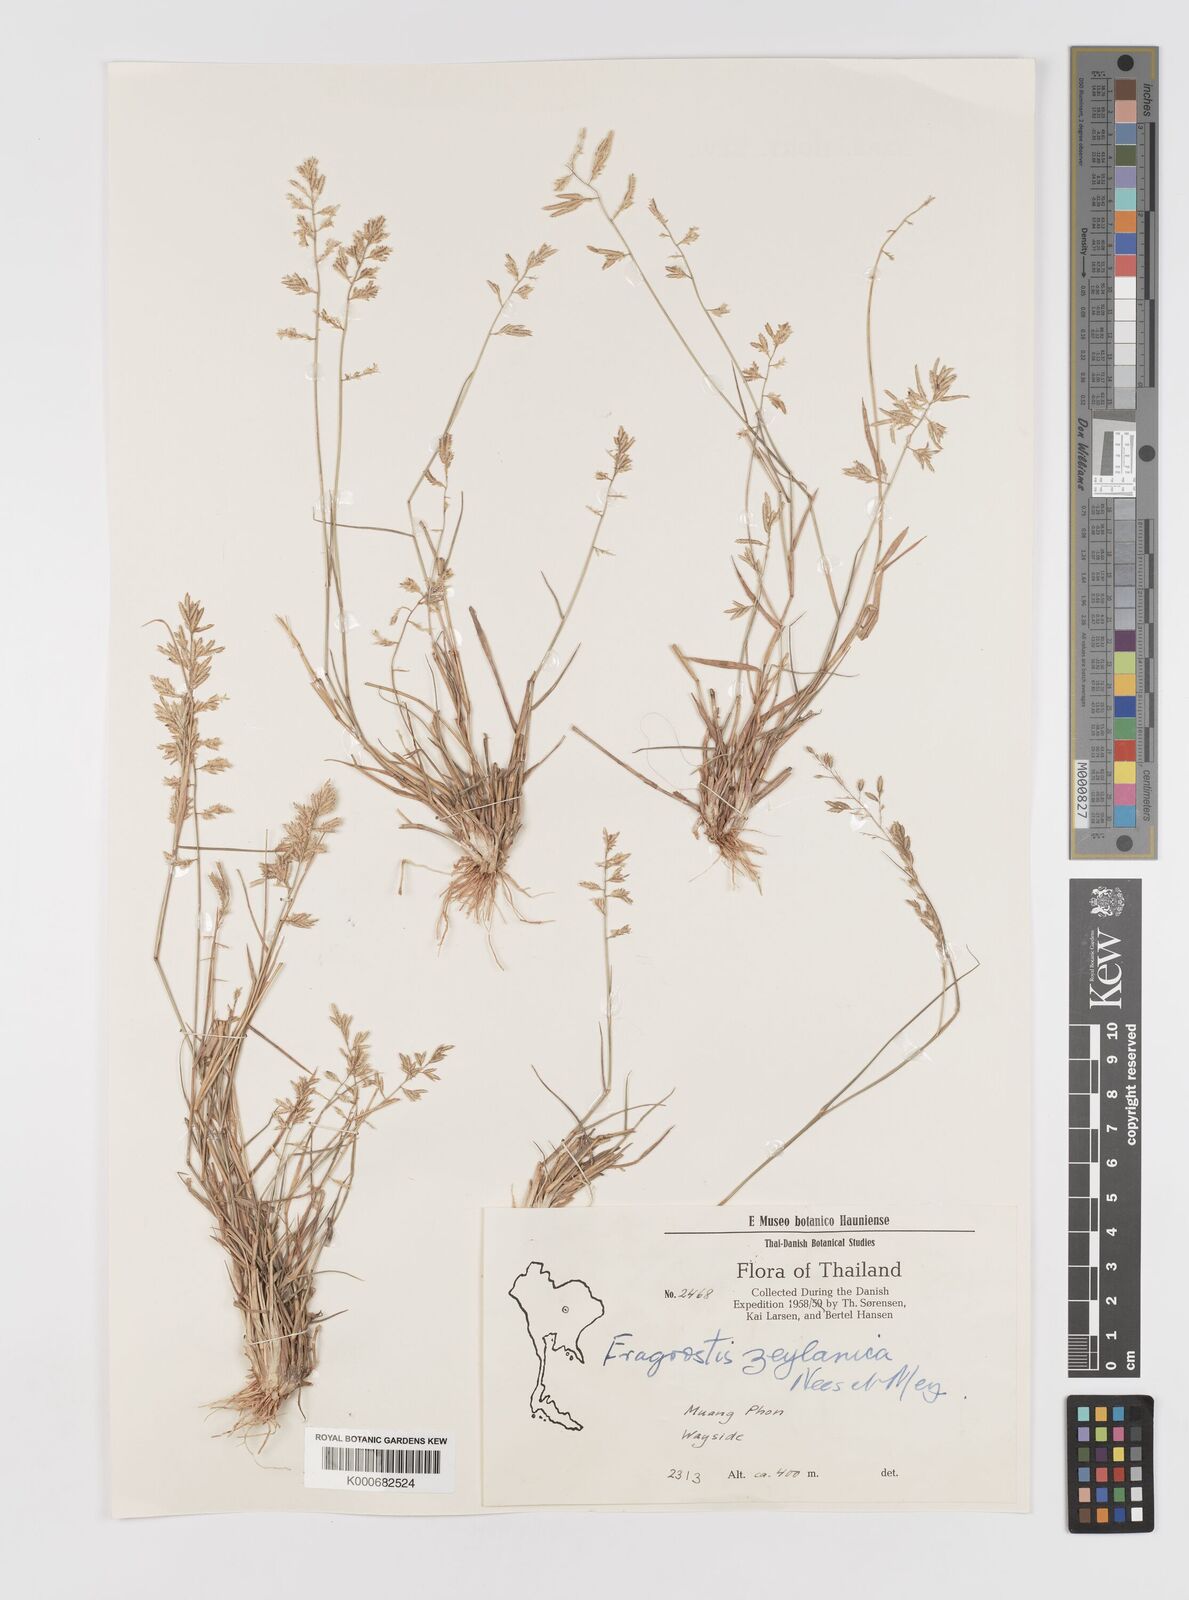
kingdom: Plantae
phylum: Tracheophyta
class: Liliopsida
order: Poales
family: Poaceae
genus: Eragrostis
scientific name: Eragrostis subsecunda
